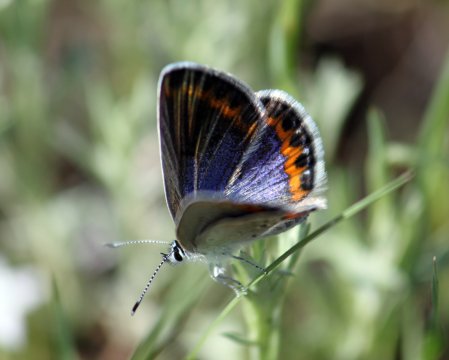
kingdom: Animalia
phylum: Arthropoda
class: Insecta
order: Lepidoptera
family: Lycaenidae
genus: Lycaeides
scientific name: Lycaeides melissa
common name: Melissa Blue
